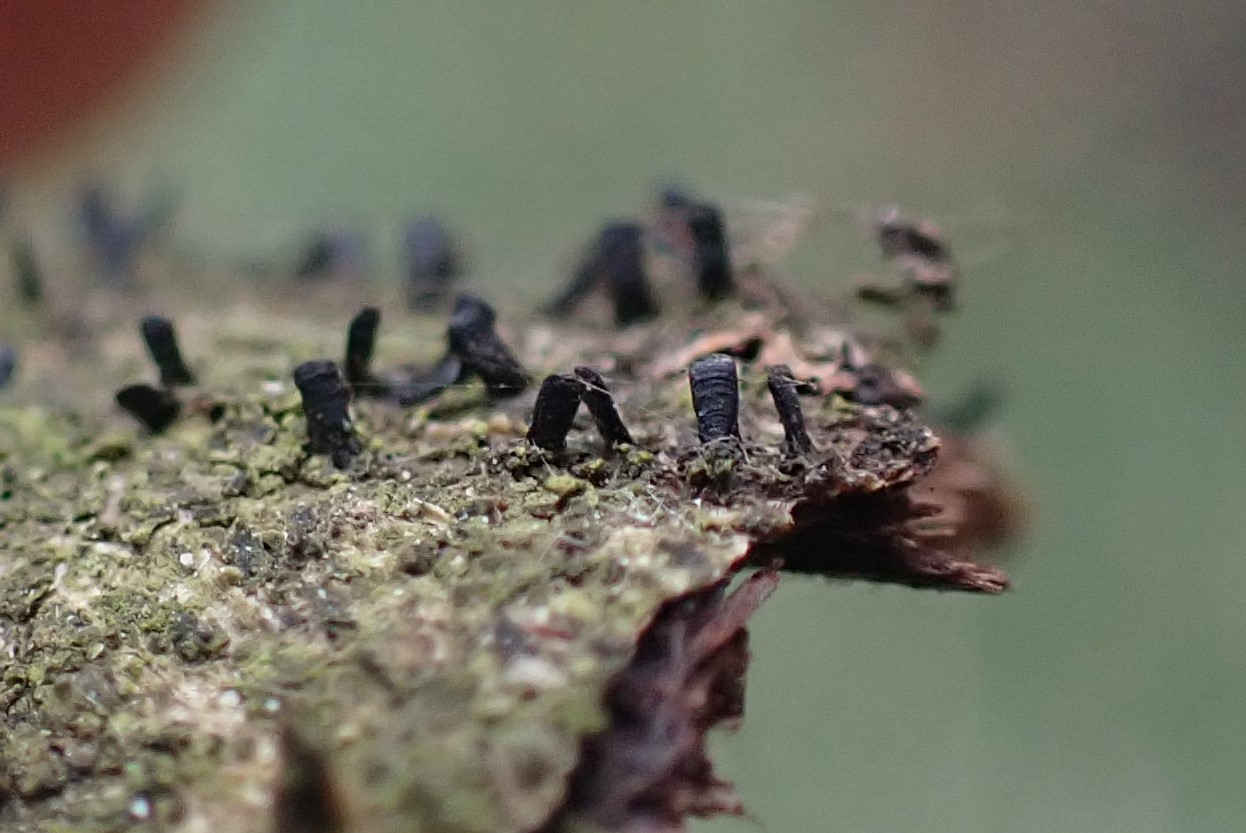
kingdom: Fungi
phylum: Ascomycota
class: Eurotiomycetes
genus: Glyphium
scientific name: Glyphium elatum
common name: kuløkse
